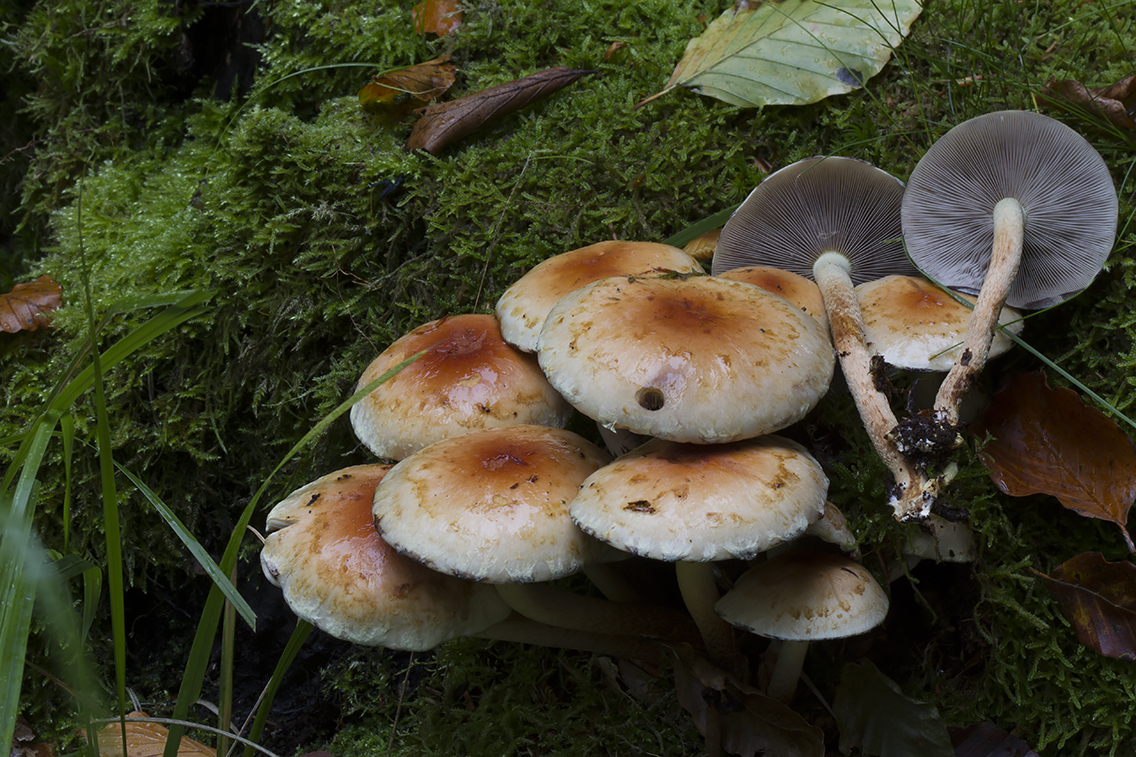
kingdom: Fungi
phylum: Basidiomycota
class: Agaricomycetes
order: Agaricales
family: Strophariaceae
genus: Hypholoma
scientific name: Hypholoma lateritium
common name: teglrød svovlhat
